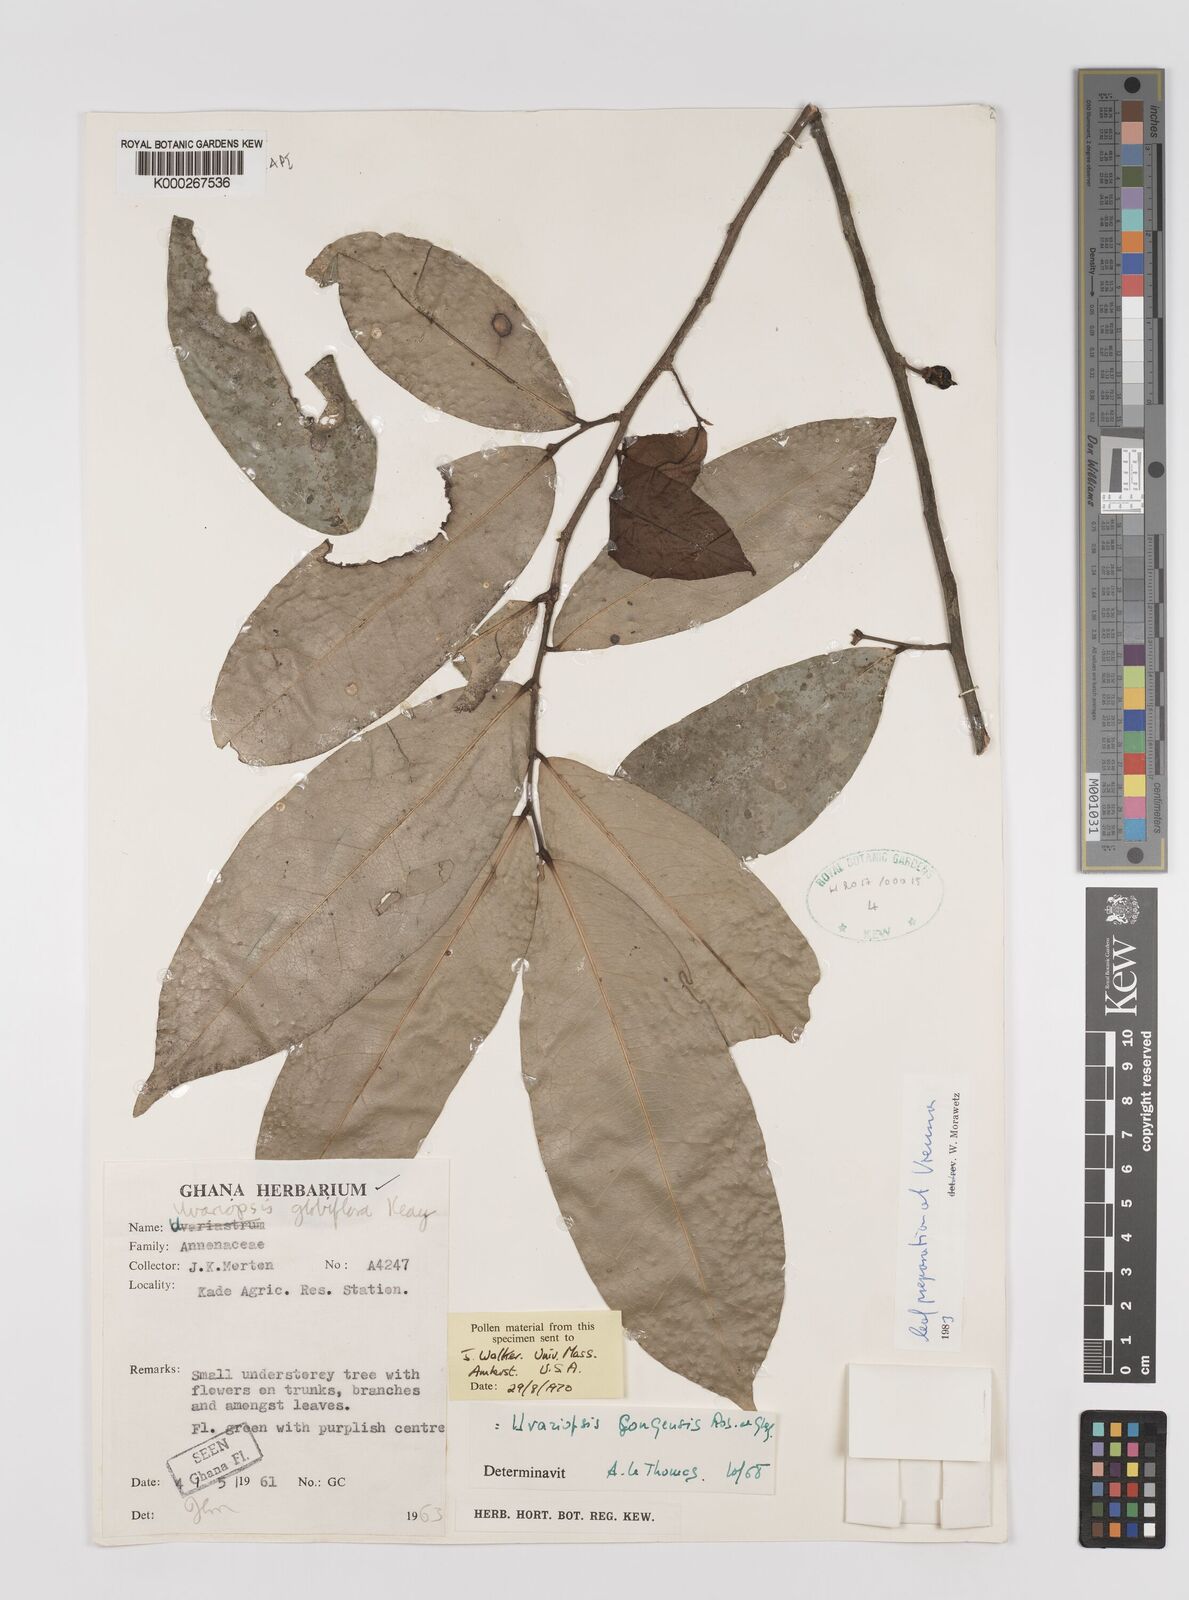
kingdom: Plantae
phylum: Tracheophyta
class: Magnoliopsida
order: Magnoliales
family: Annonaceae
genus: Uvaria
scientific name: Uvaria
